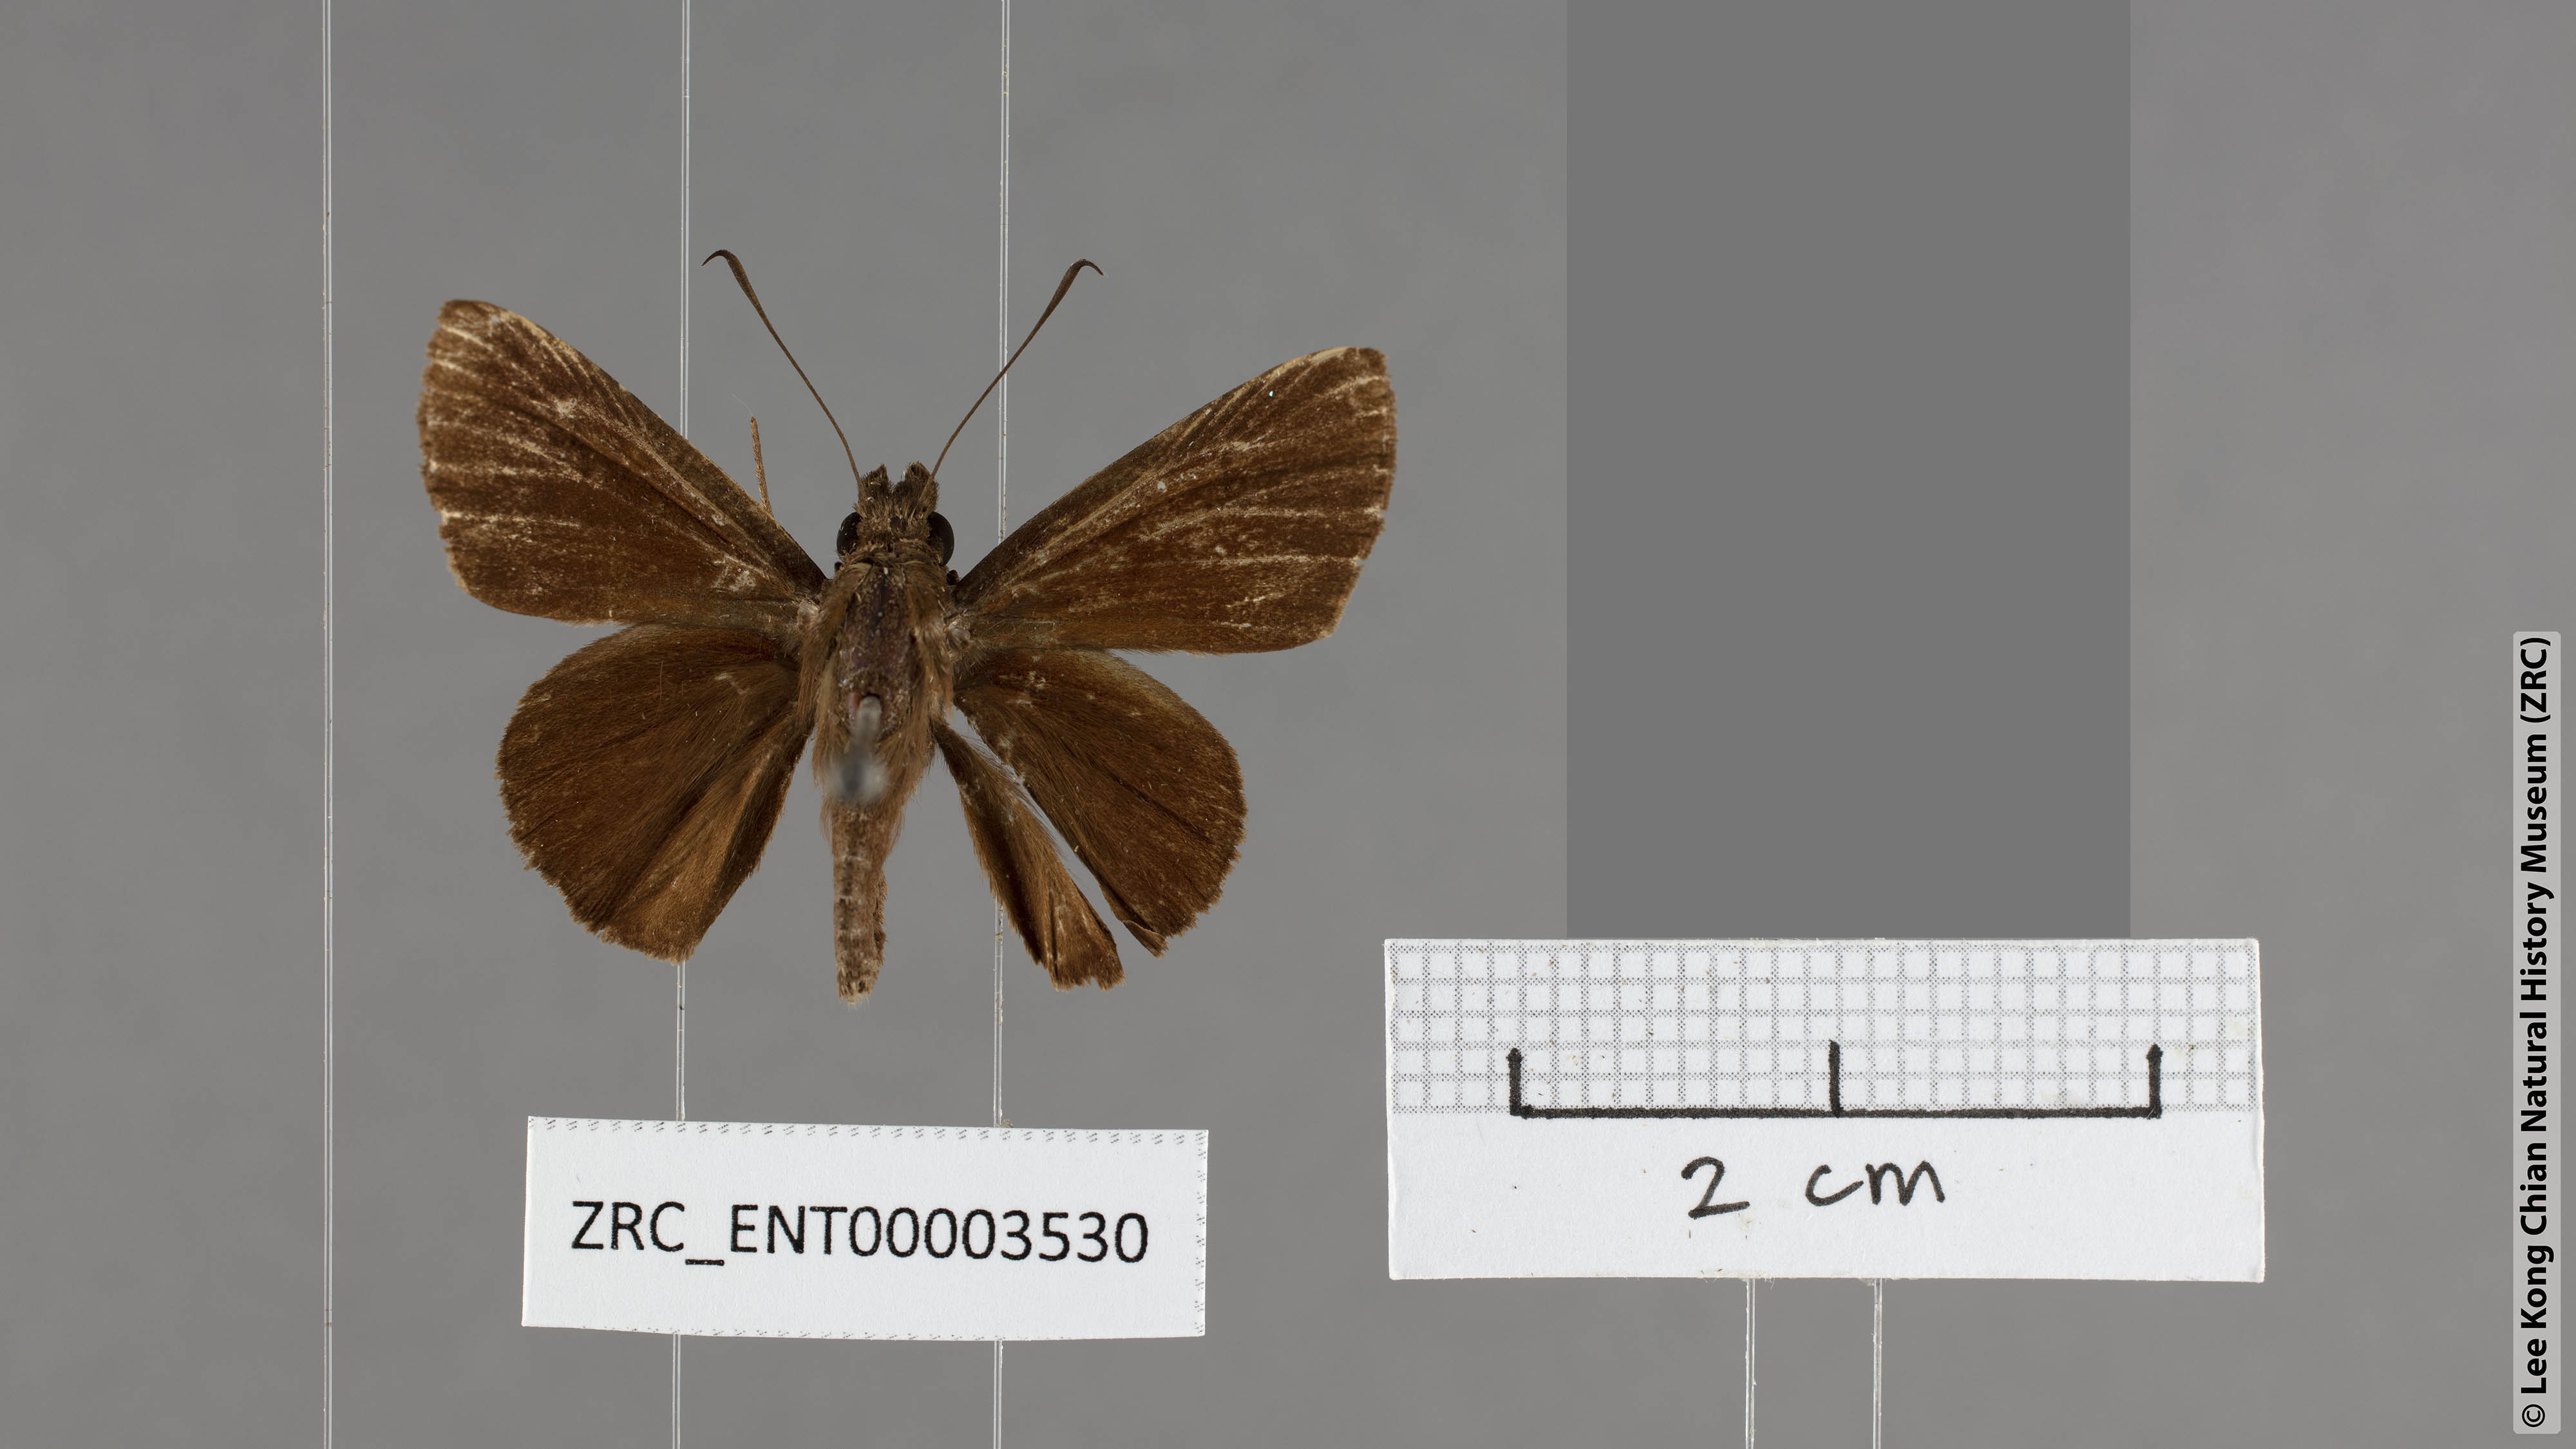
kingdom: Animalia
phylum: Arthropoda
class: Insecta
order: Lepidoptera
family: Hesperiidae
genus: Quedara
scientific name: Quedara singularis
